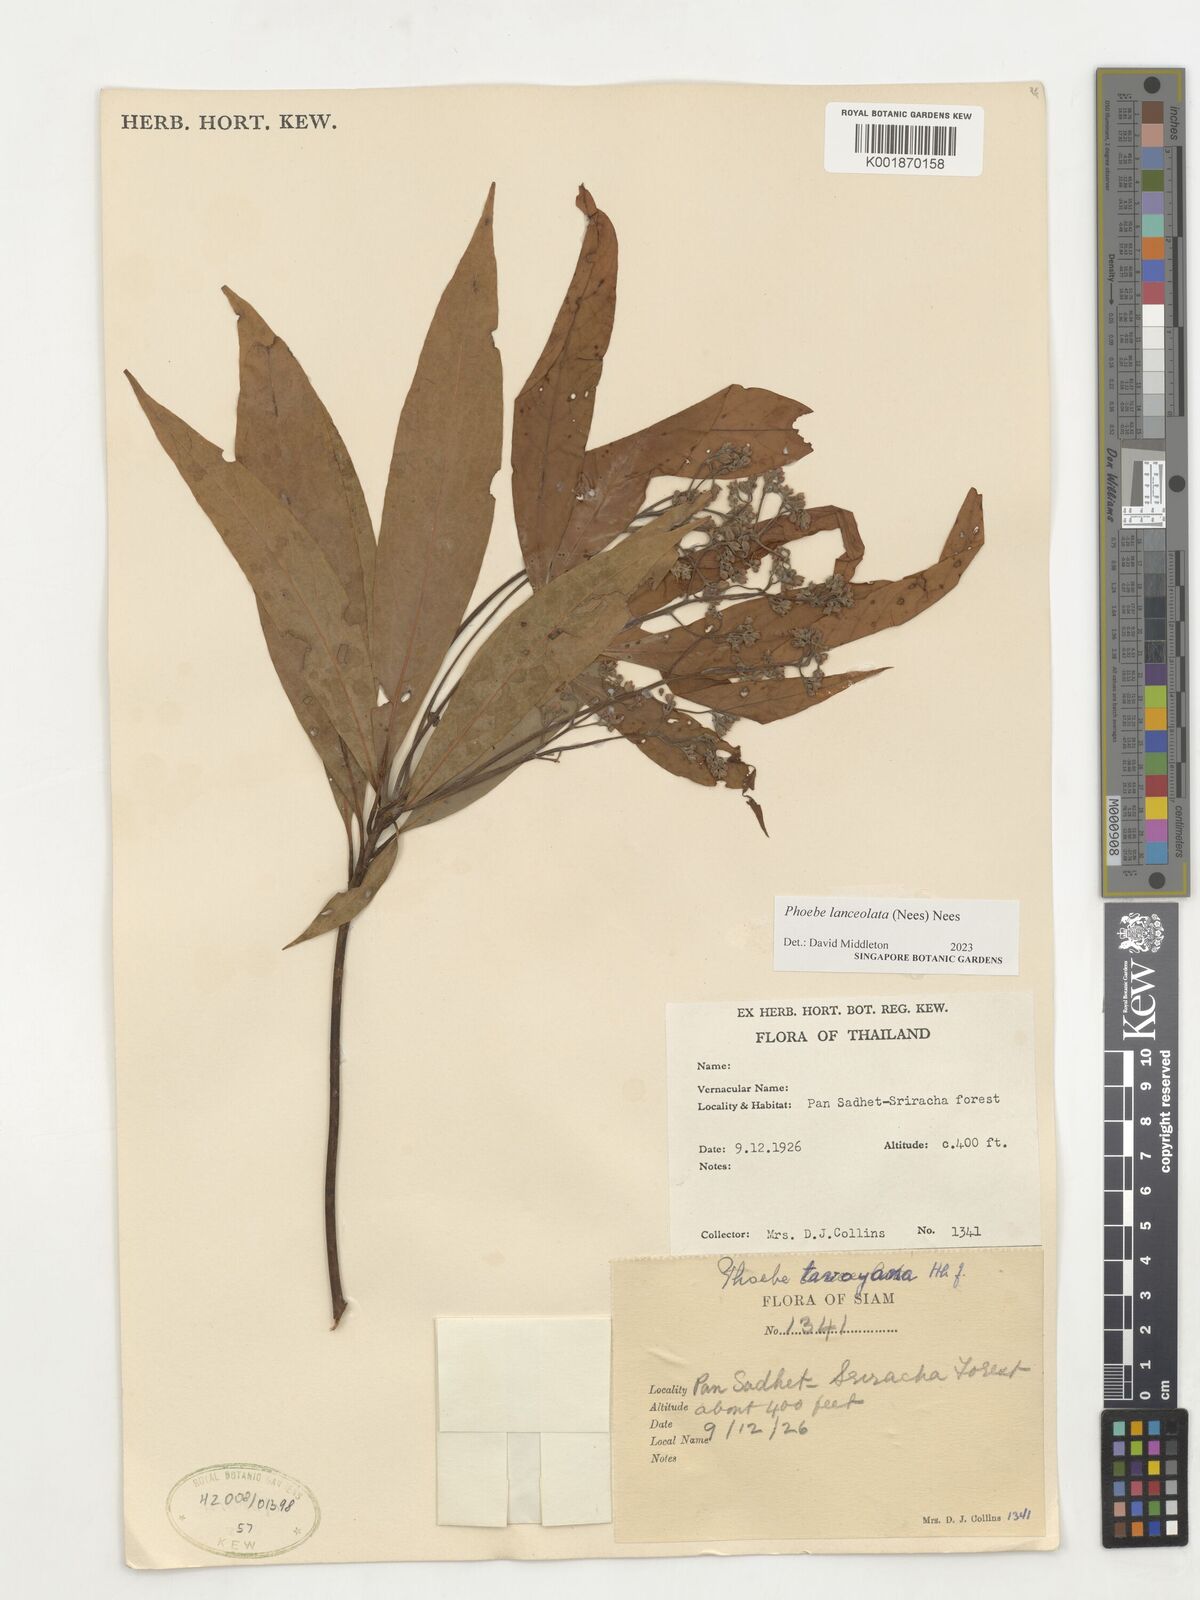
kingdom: Plantae
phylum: Tracheophyta
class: Magnoliopsida
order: Laurales
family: Lauraceae
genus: Phoebe
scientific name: Phoebe lanceolata
